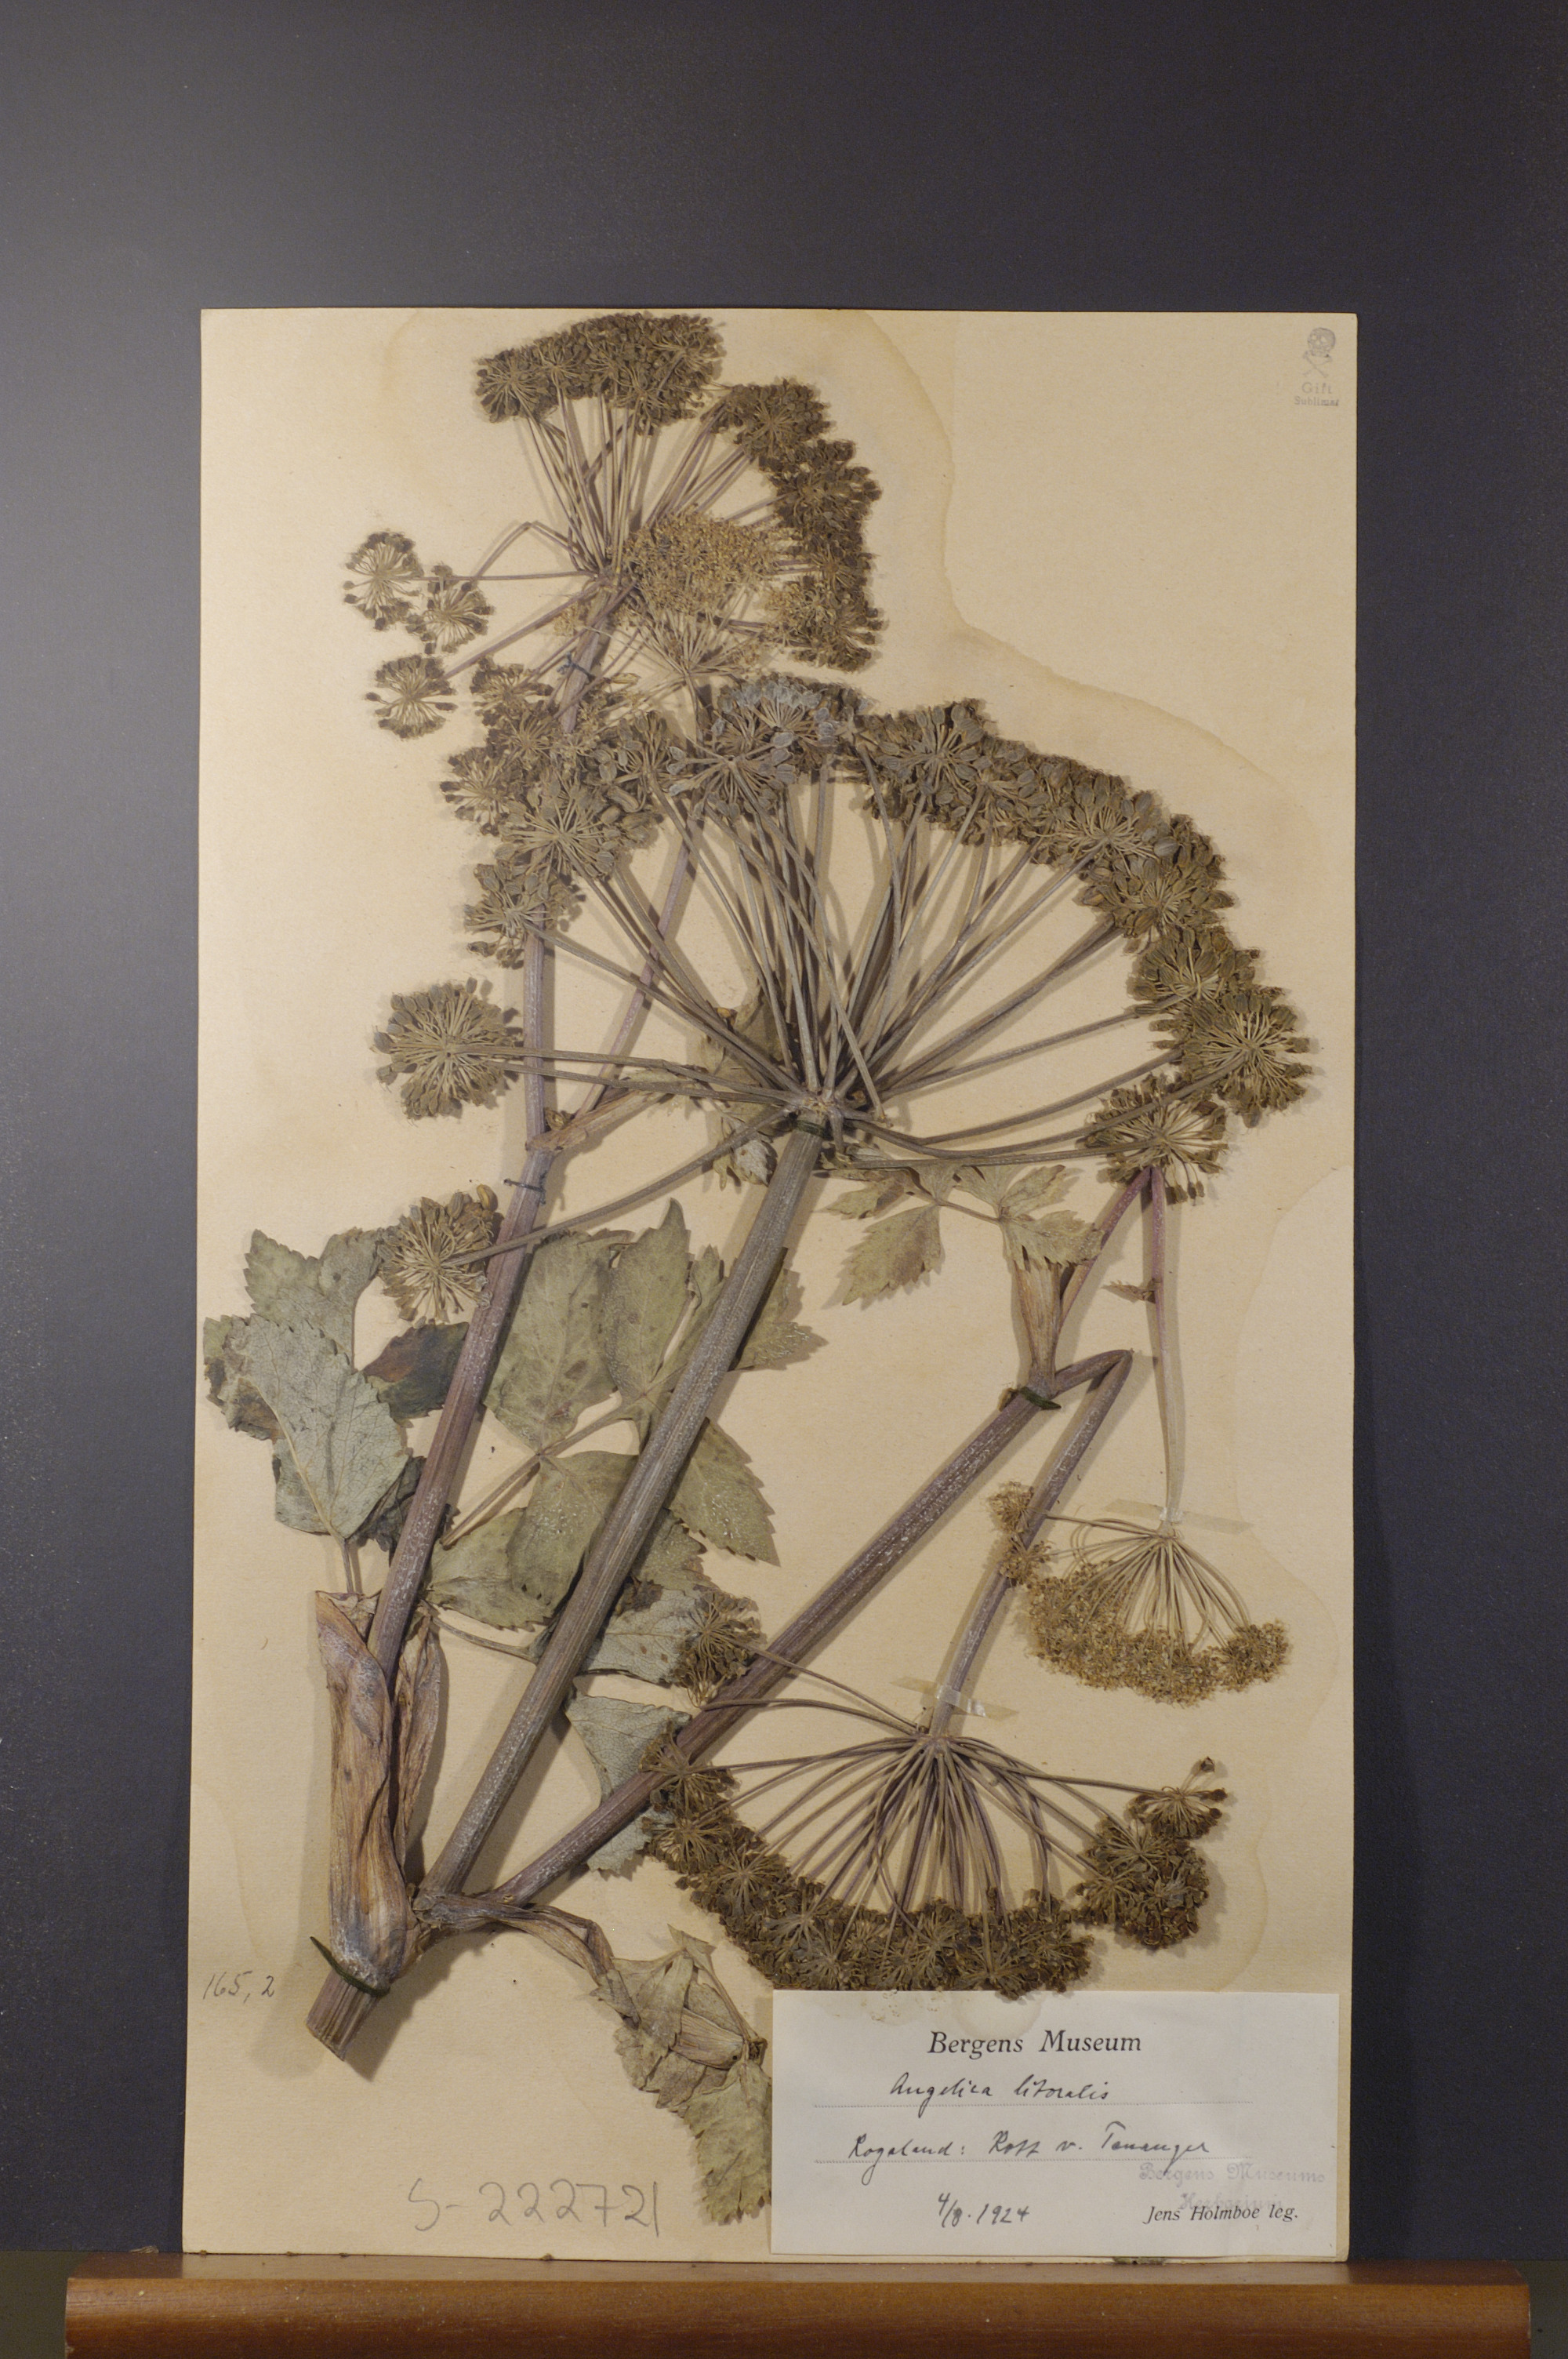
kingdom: Plantae
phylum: Tracheophyta
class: Magnoliopsida
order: Apiales
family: Apiaceae
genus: Angelica
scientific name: Angelica archangelica
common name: Garden angelica
